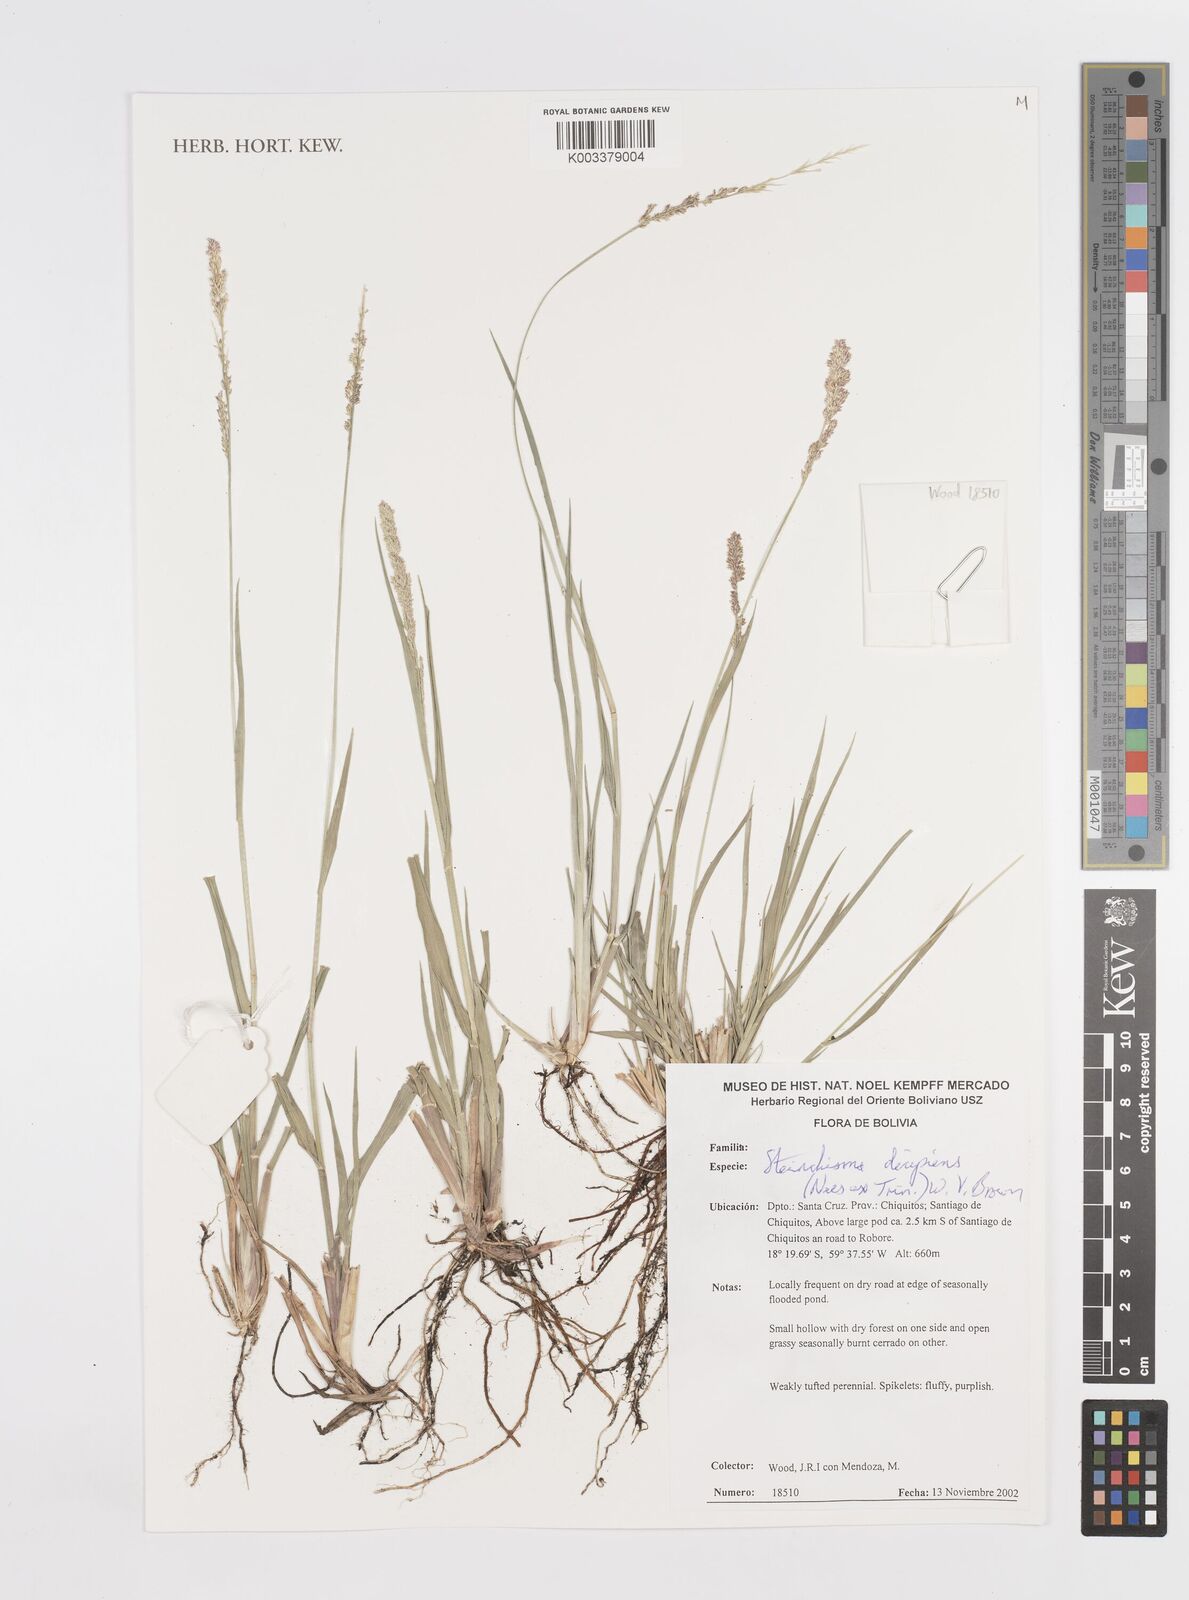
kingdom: Plantae
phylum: Tracheophyta
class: Liliopsida
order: Poales
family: Poaceae
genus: Steinchisma
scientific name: Steinchisma decipiens
